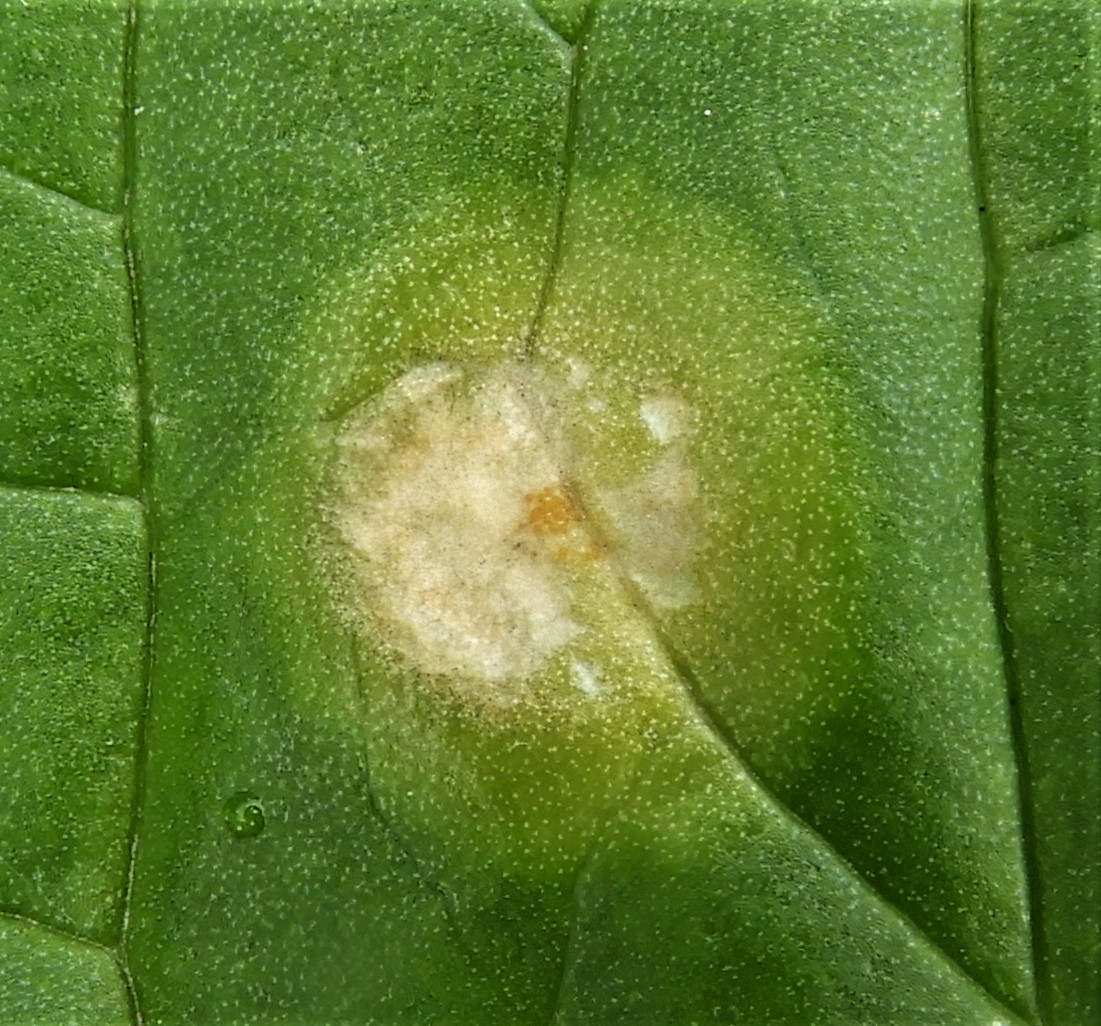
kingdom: Fungi
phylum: Basidiomycota
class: Pucciniomycetes
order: Pucciniales
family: Pucciniaceae
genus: Puccinia
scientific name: Puccinia sessilis
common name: Arum rust
